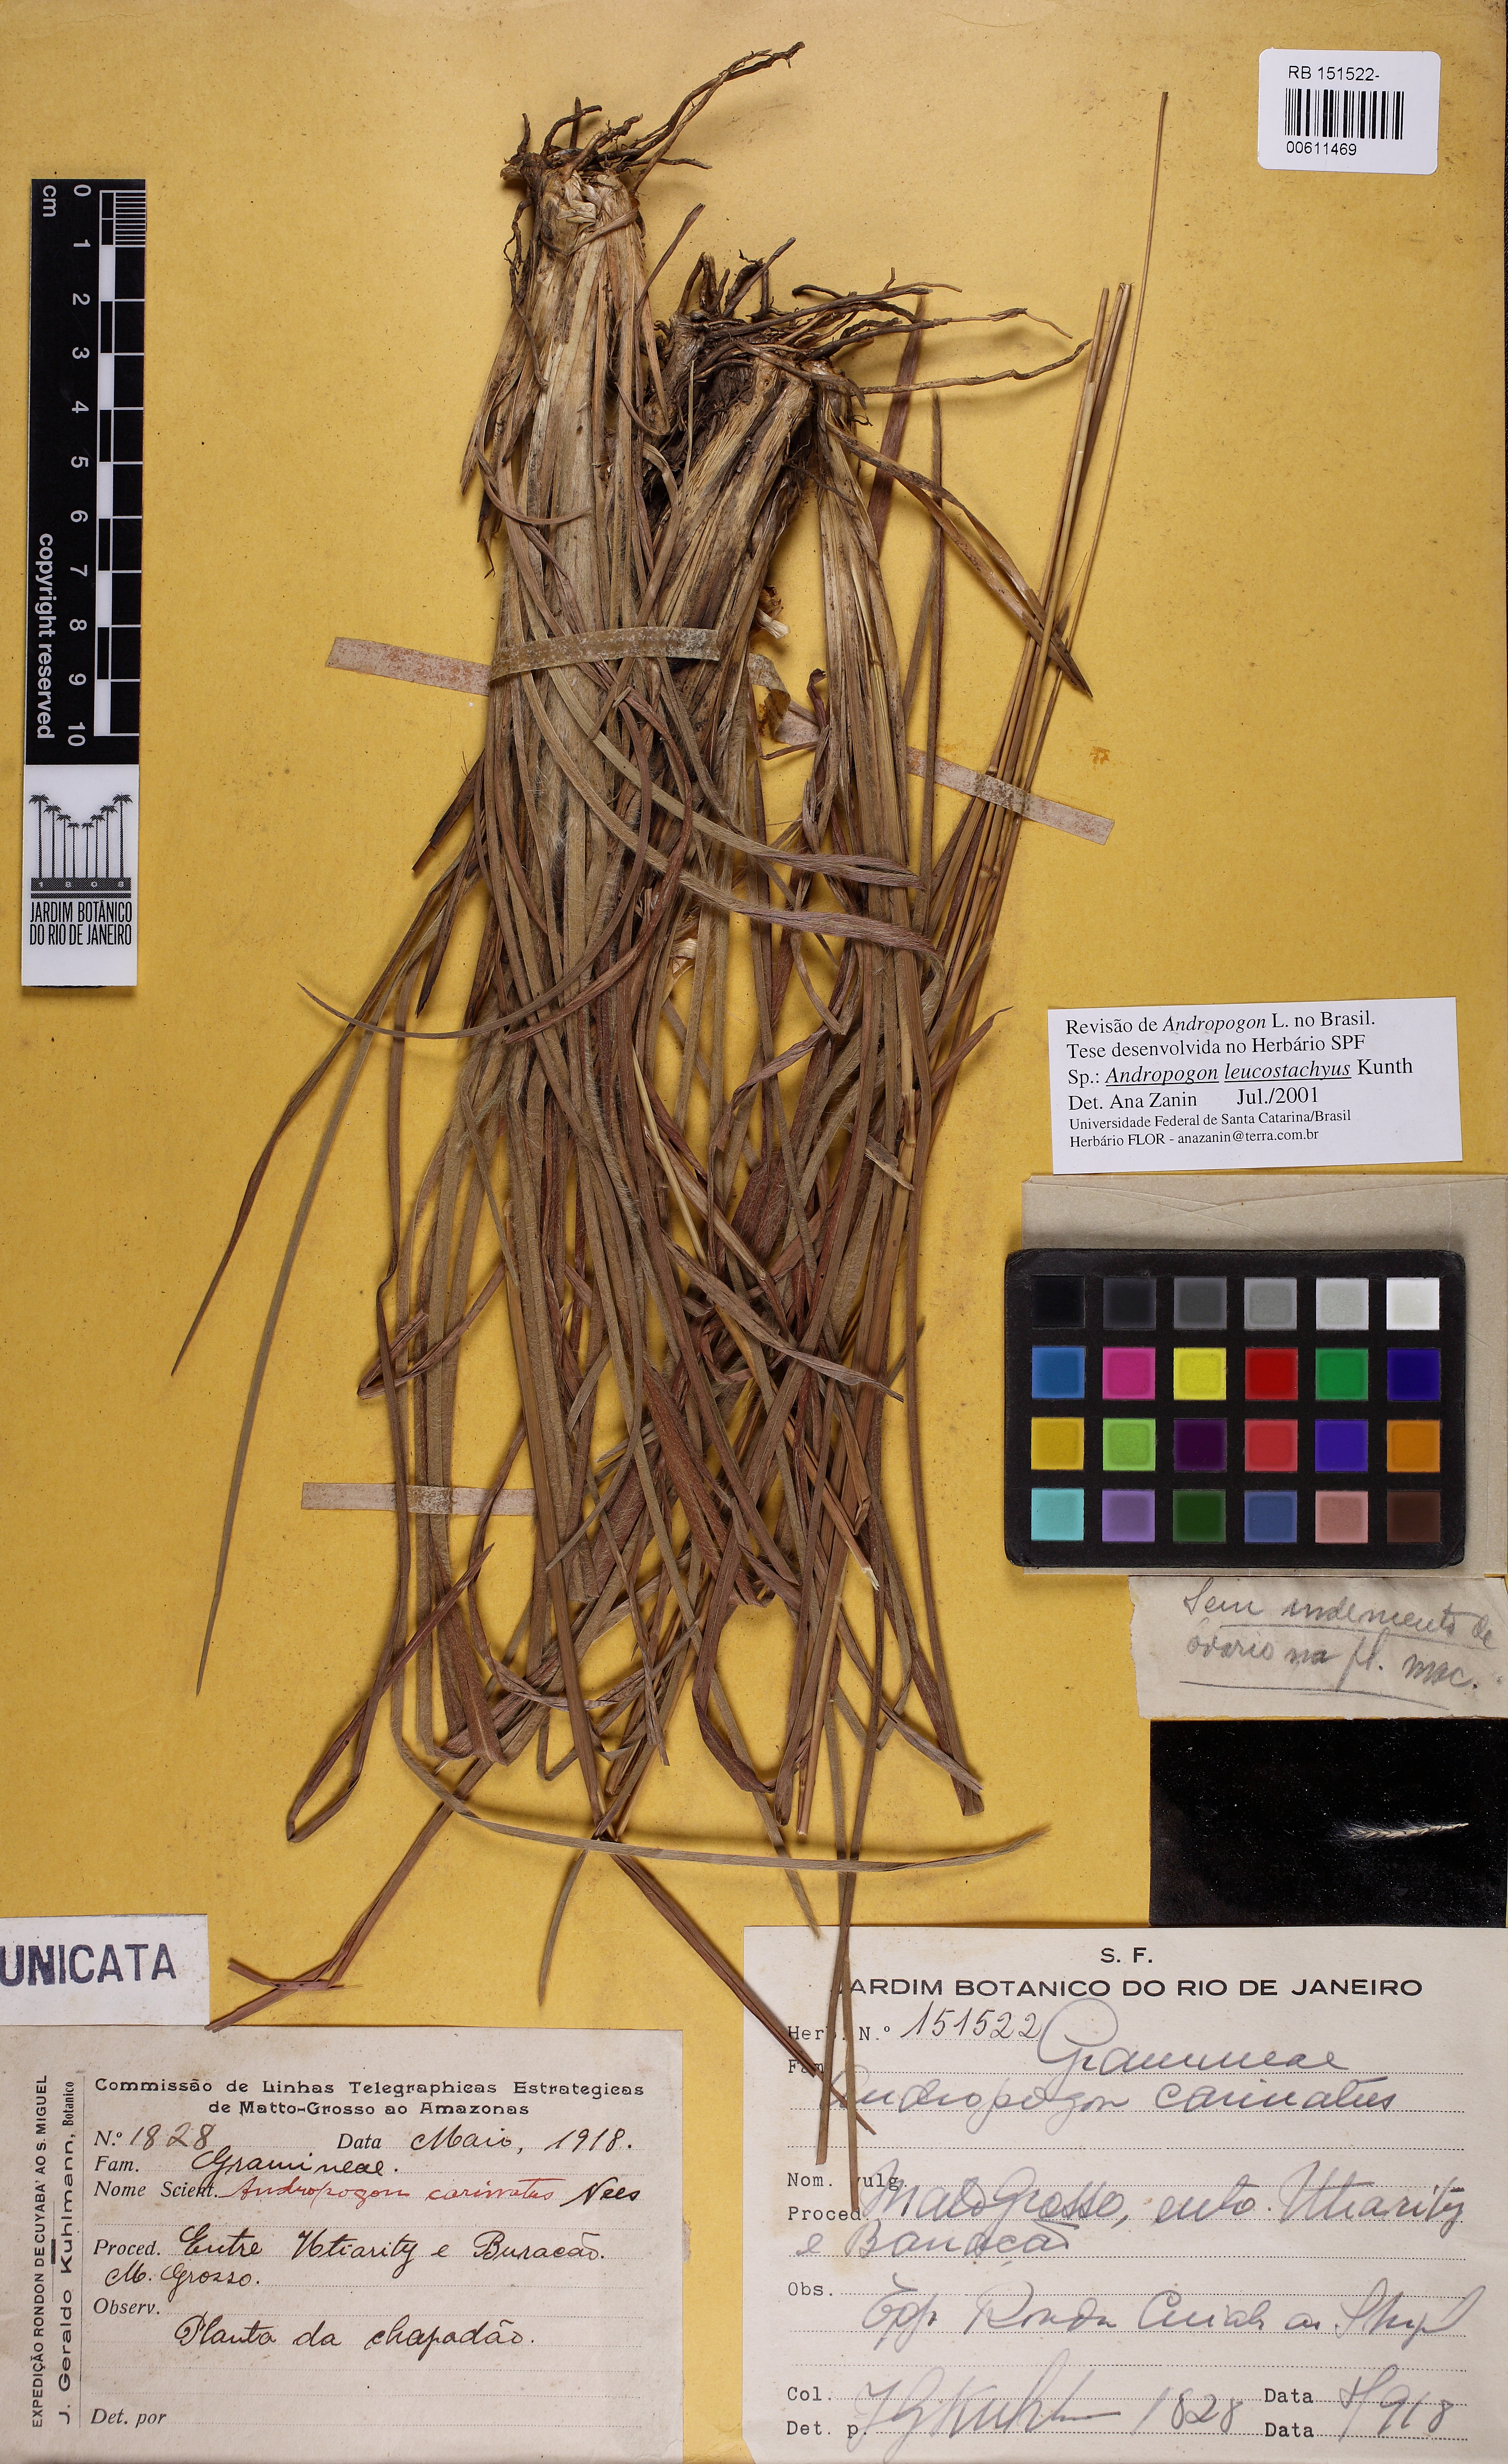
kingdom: Plantae
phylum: Tracheophyta
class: Liliopsida
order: Poales
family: Poaceae
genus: Andropogon
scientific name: Andropogon leucostachyus
